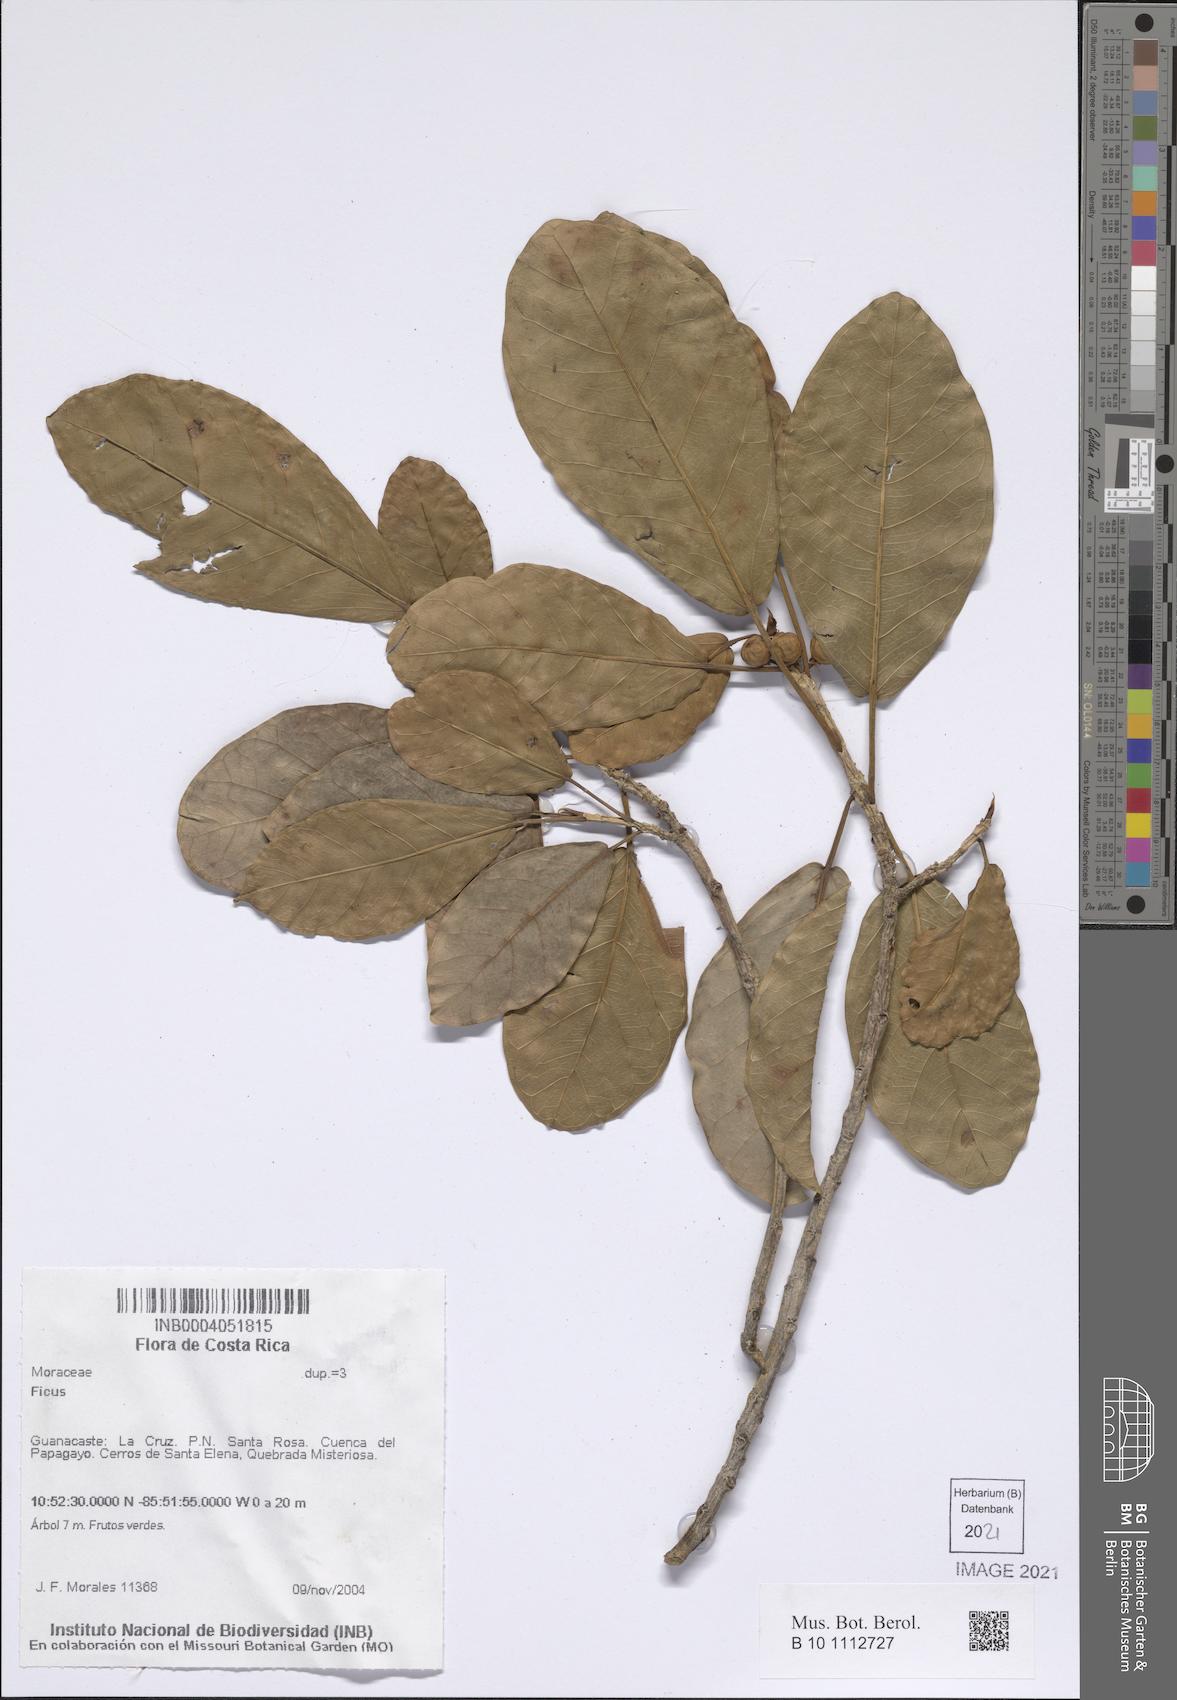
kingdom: Plantae
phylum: Tracheophyta
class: Magnoliopsida
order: Rosales
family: Moraceae
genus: Ficus
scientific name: Ficus
